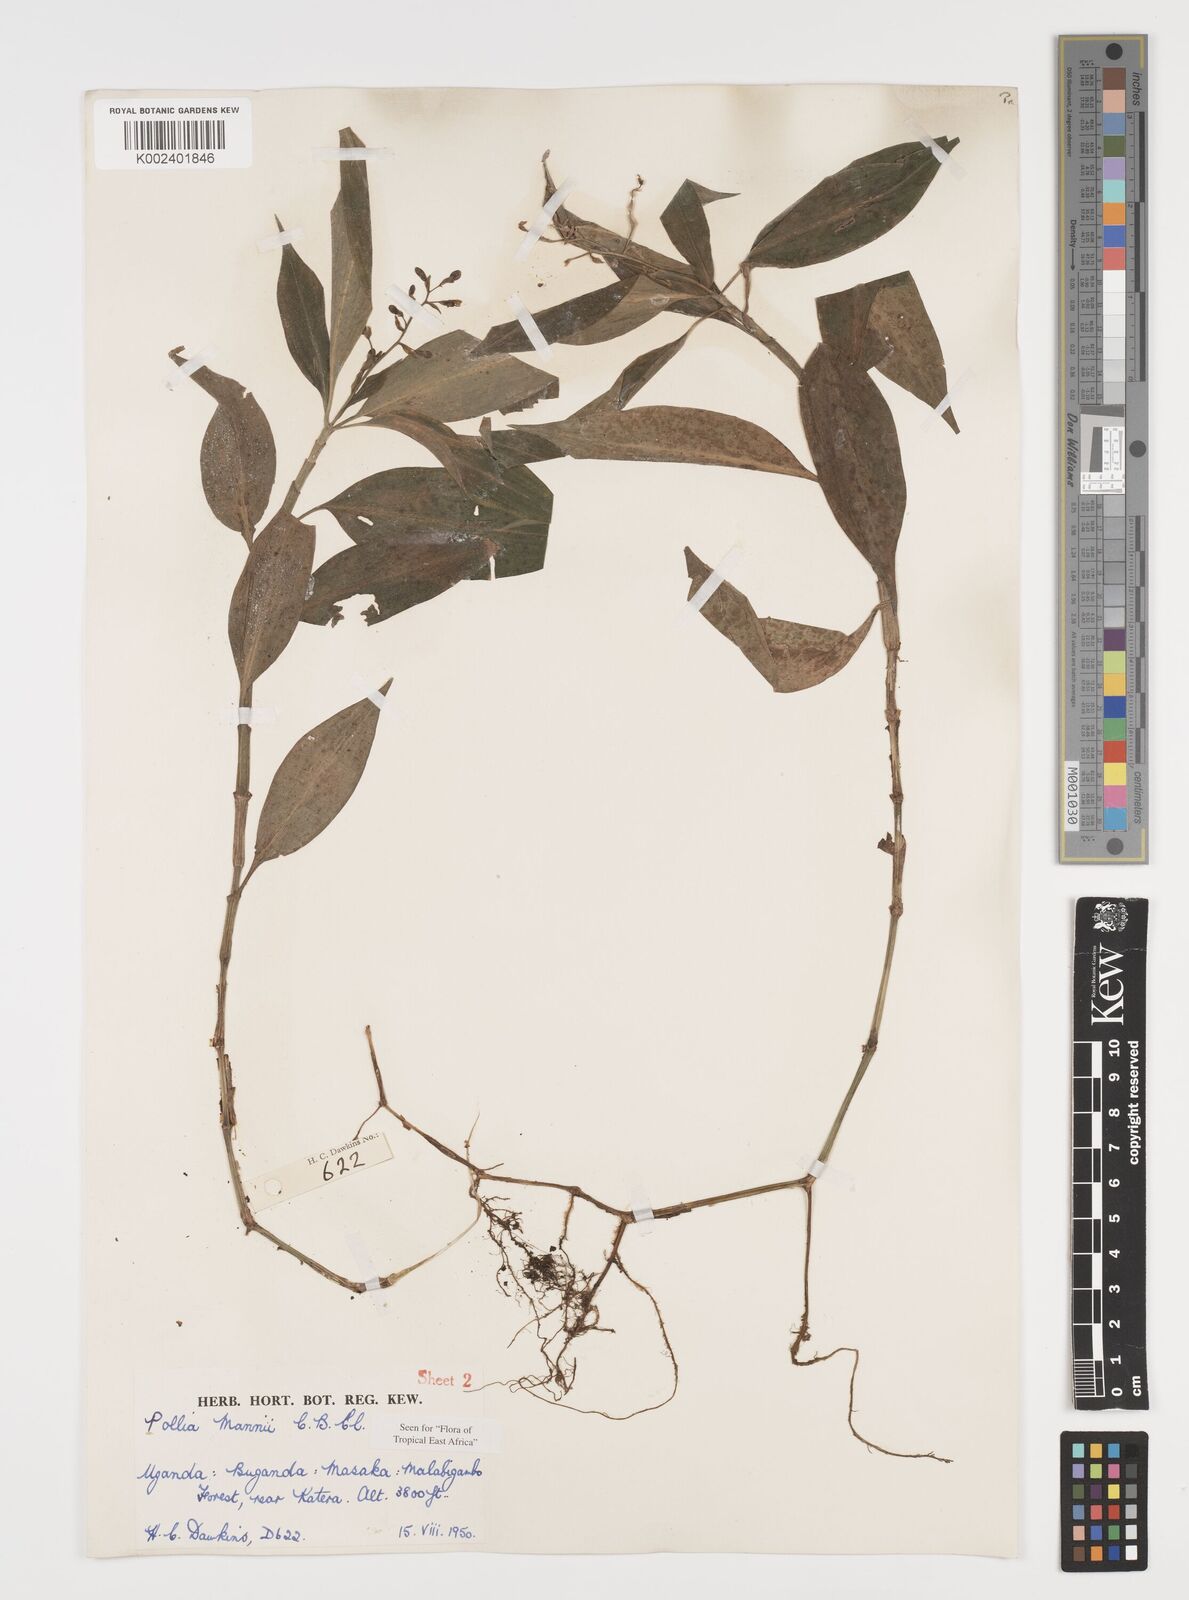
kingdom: Plantae
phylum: Tracheophyta
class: Liliopsida
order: Commelinales
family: Commelinaceae
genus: Pollia
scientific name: Pollia mannii
